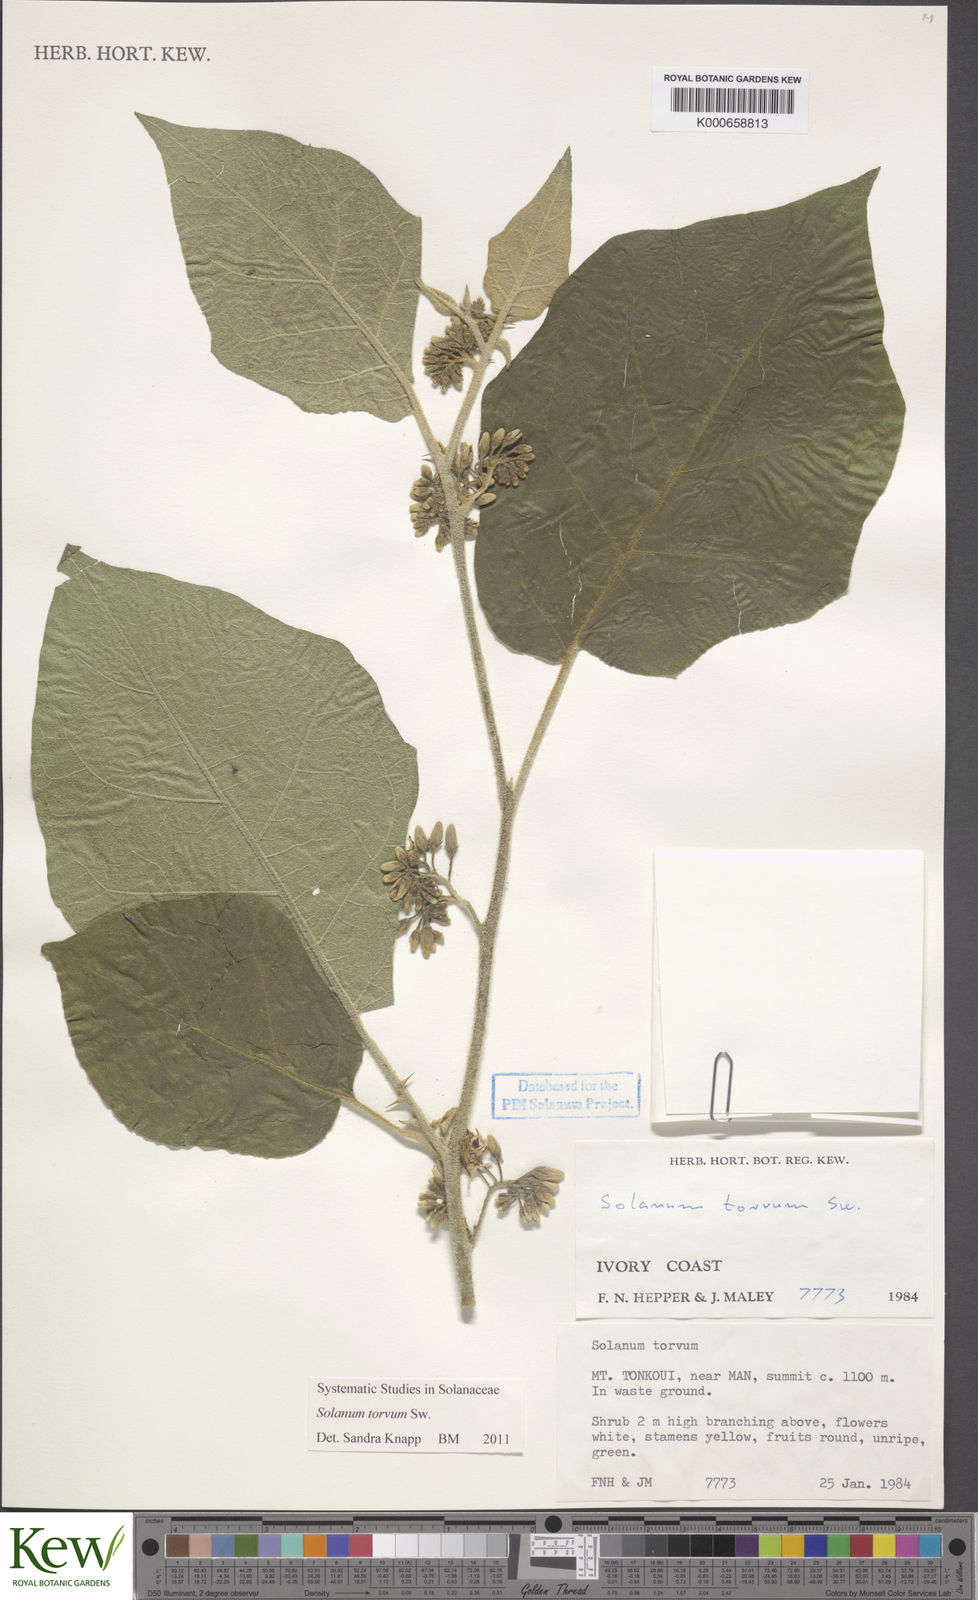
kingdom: Plantae
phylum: Tracheophyta
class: Magnoliopsida
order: Solanales
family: Solanaceae
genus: Solanum
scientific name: Solanum torvum
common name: Turkey berry
